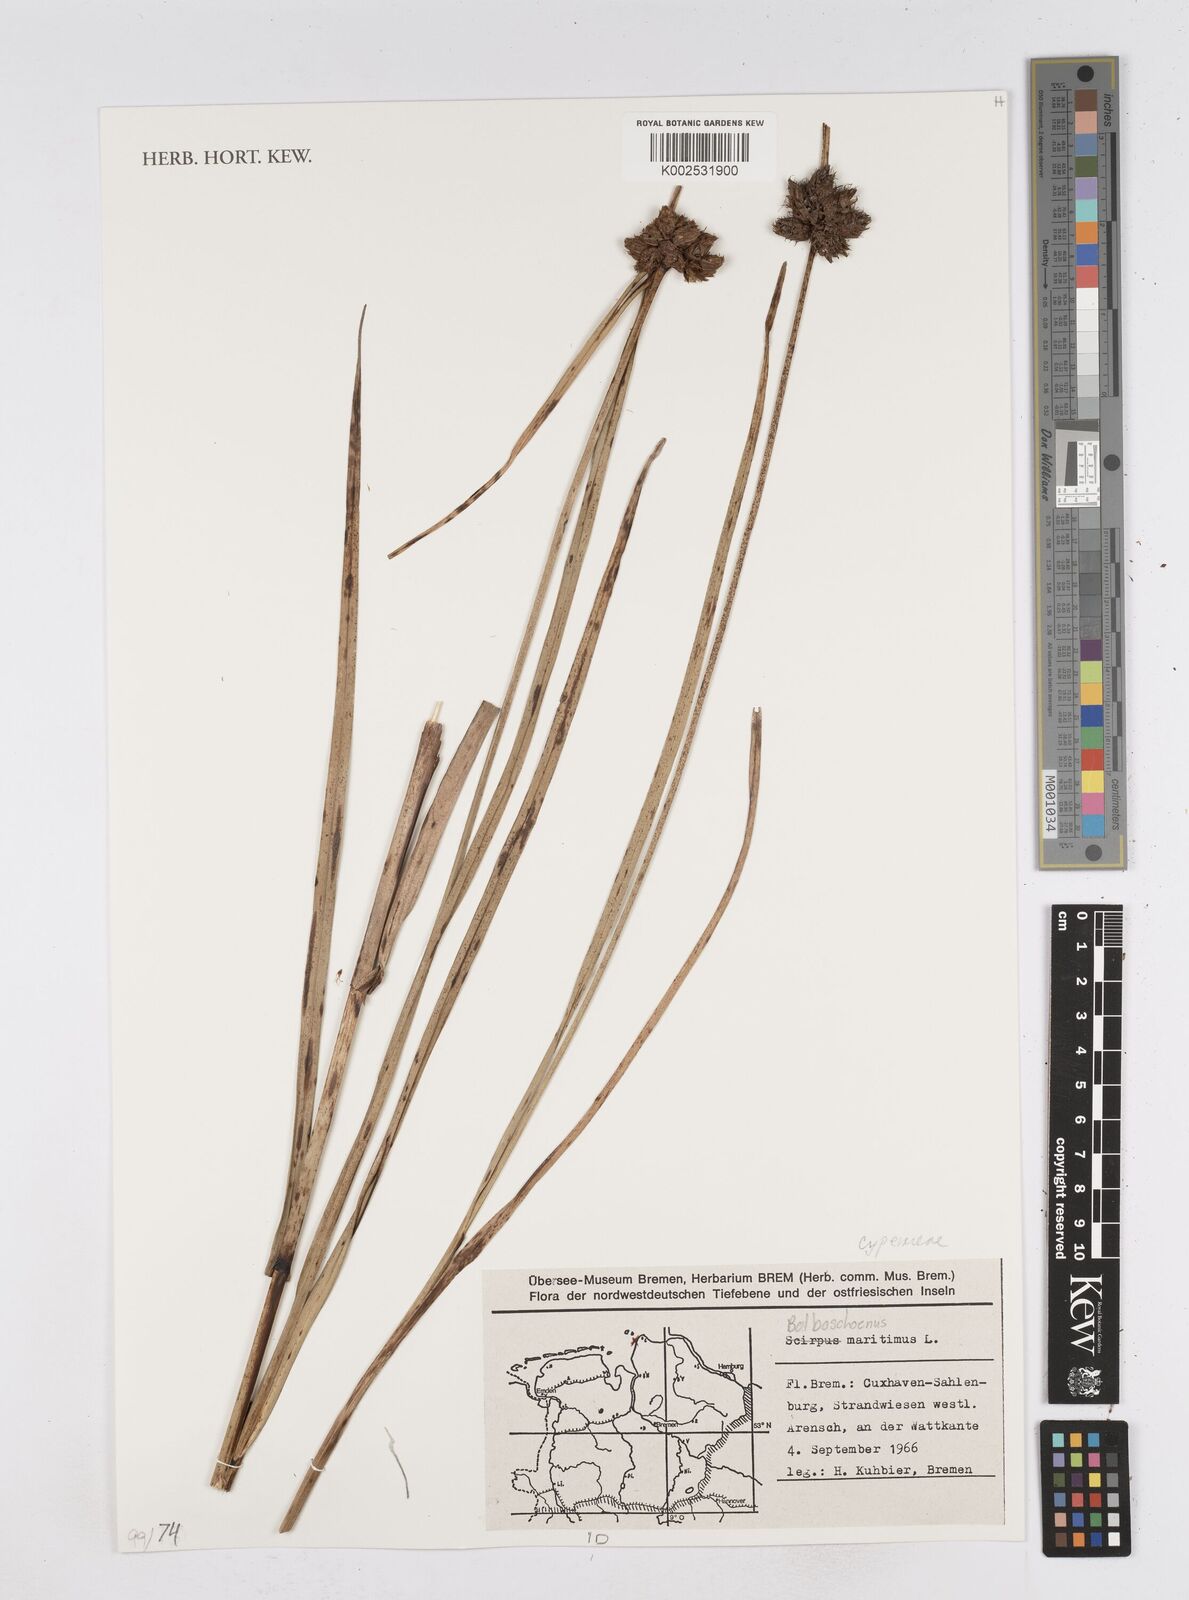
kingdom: Plantae
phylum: Tracheophyta
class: Liliopsida
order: Poales
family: Cyperaceae
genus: Bolboschoenus
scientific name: Bolboschoenus maritimus
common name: Sea club-rush
